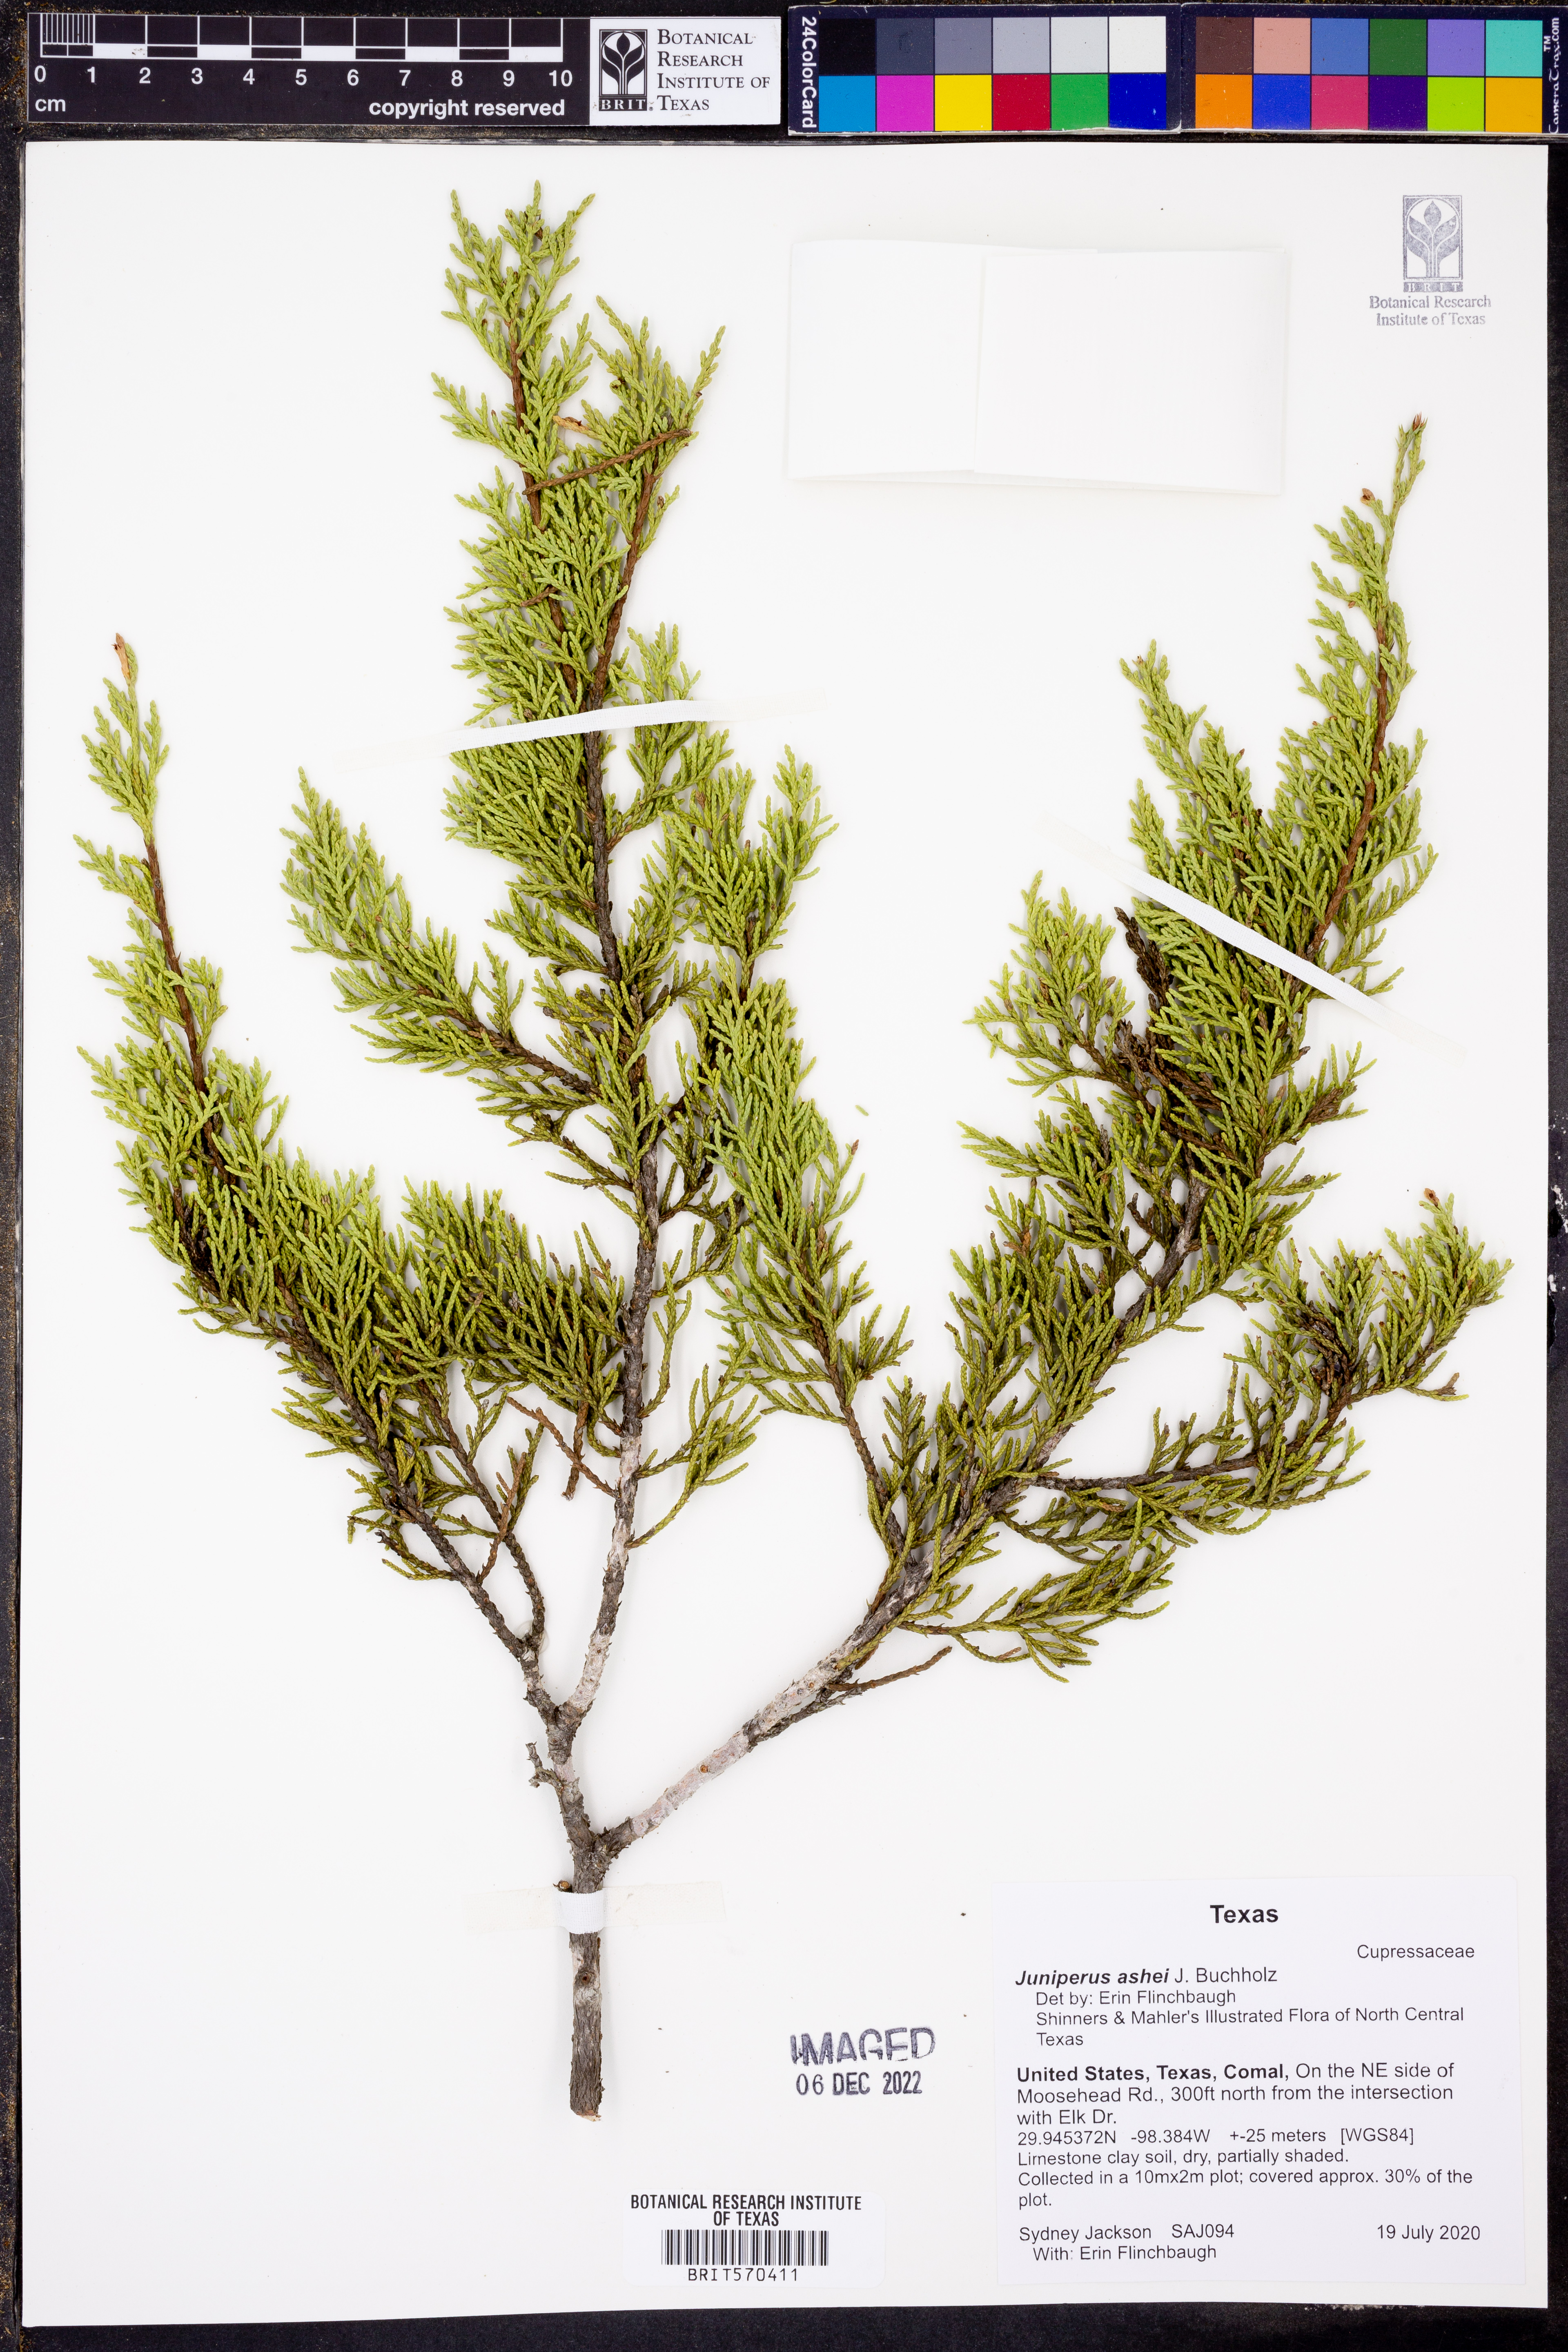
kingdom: Plantae
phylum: Tracheophyta
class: Pinopsida
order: Pinales
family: Cupressaceae
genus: Juniperus
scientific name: Juniperus ashei
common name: Mexican juniper
